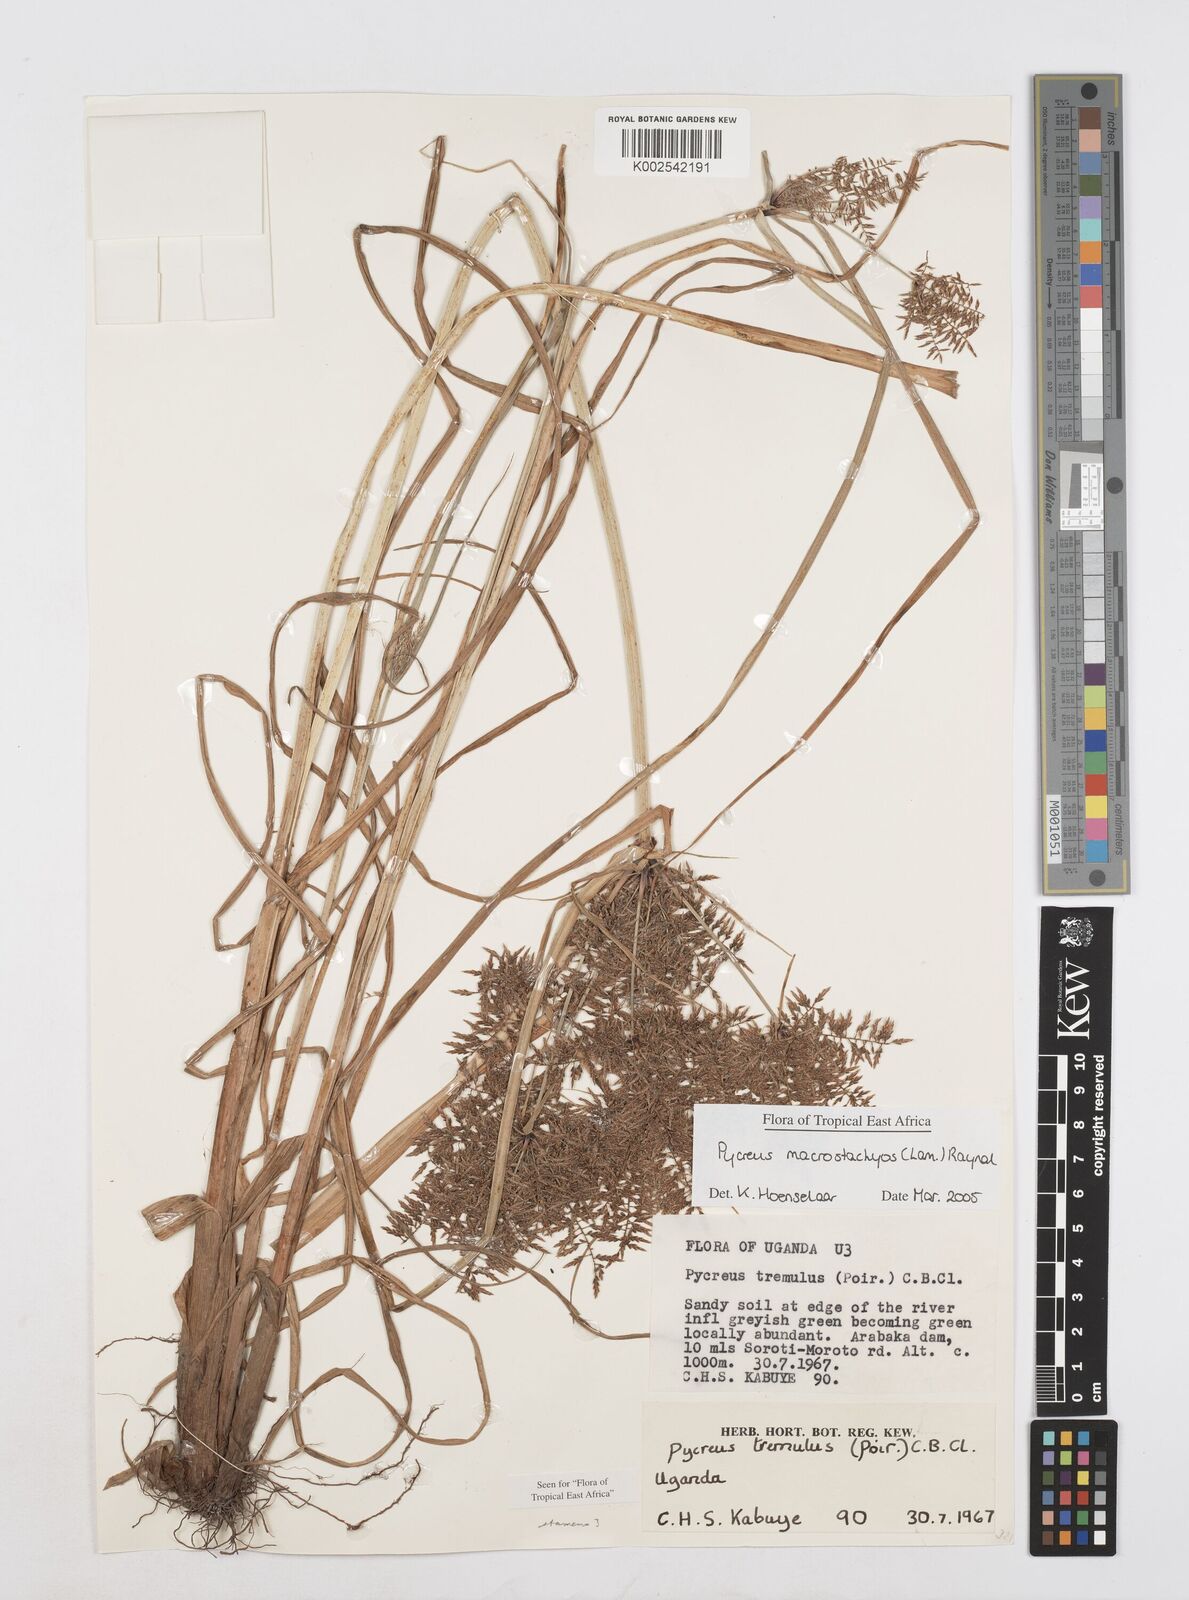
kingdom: Plantae
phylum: Tracheophyta
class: Liliopsida
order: Poales
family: Cyperaceae
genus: Cyperus
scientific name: Cyperus macrostachyos
